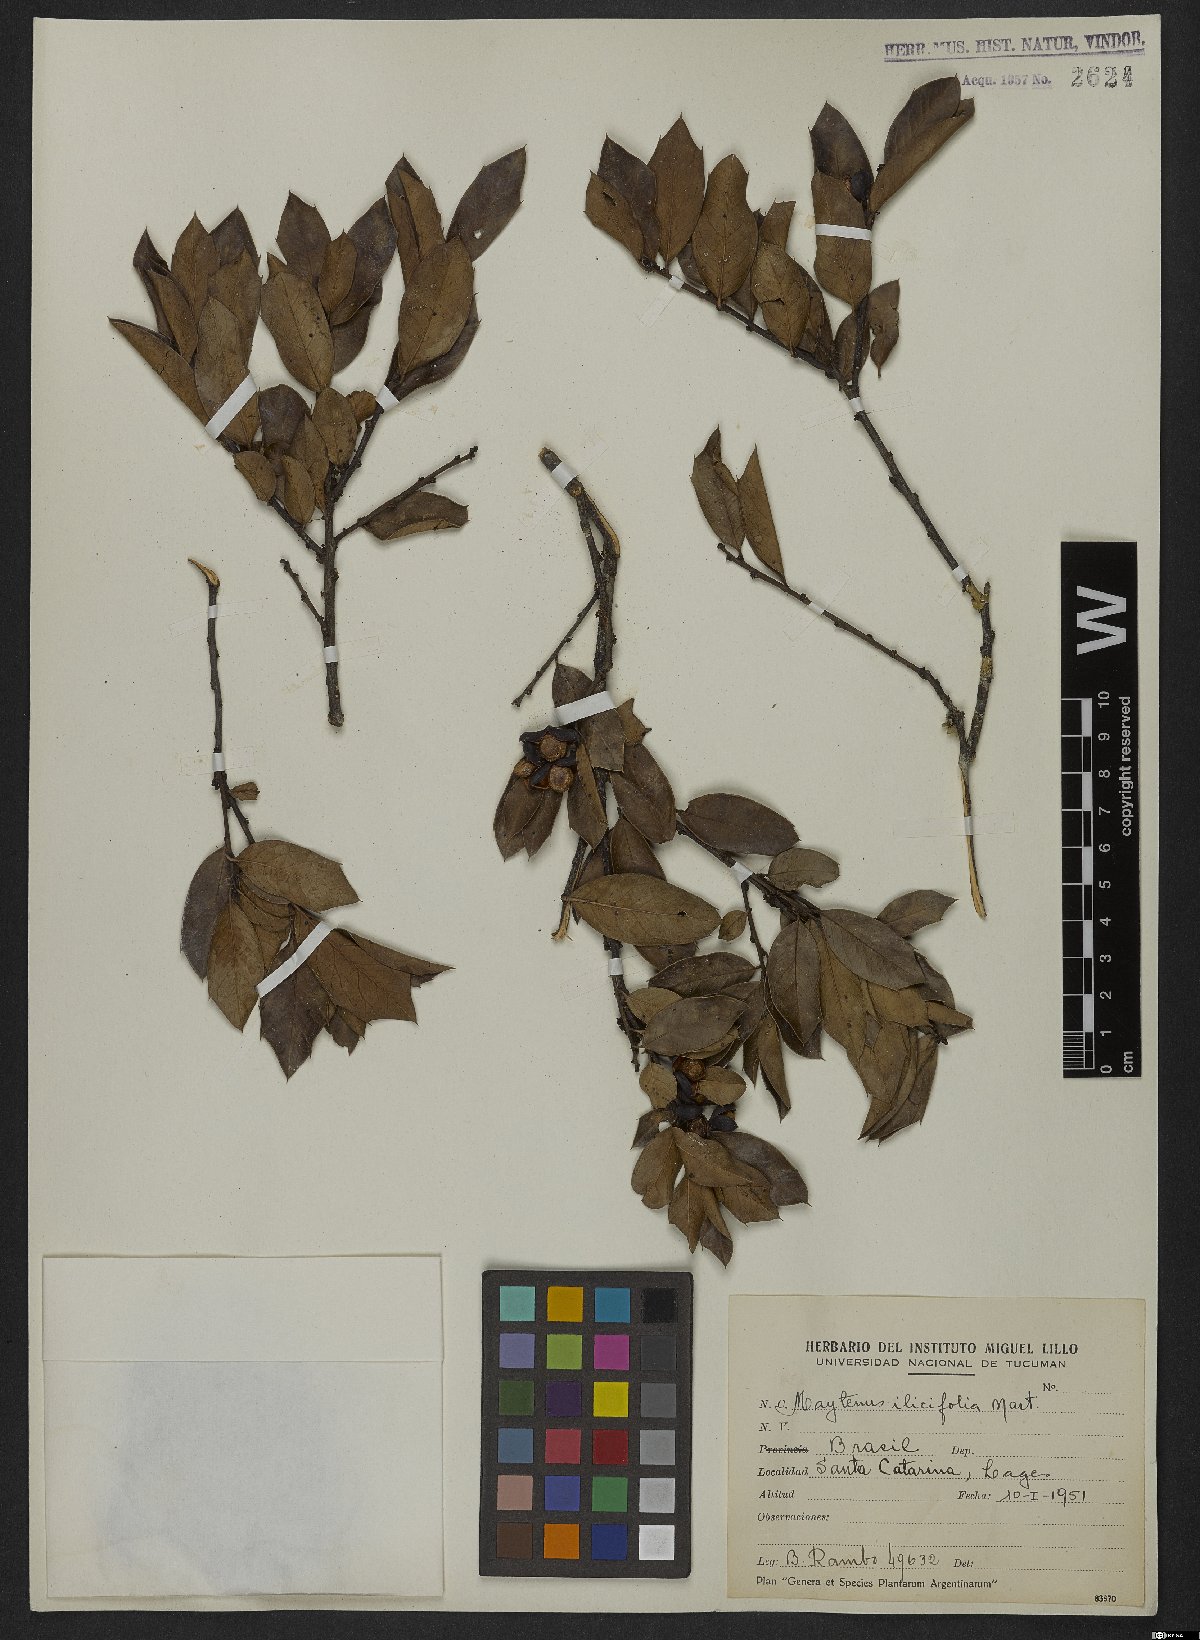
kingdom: Plantae
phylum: Tracheophyta
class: Magnoliopsida
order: Celastrales
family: Celastraceae
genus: Monteverdia
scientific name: Monteverdia ilicifolia
